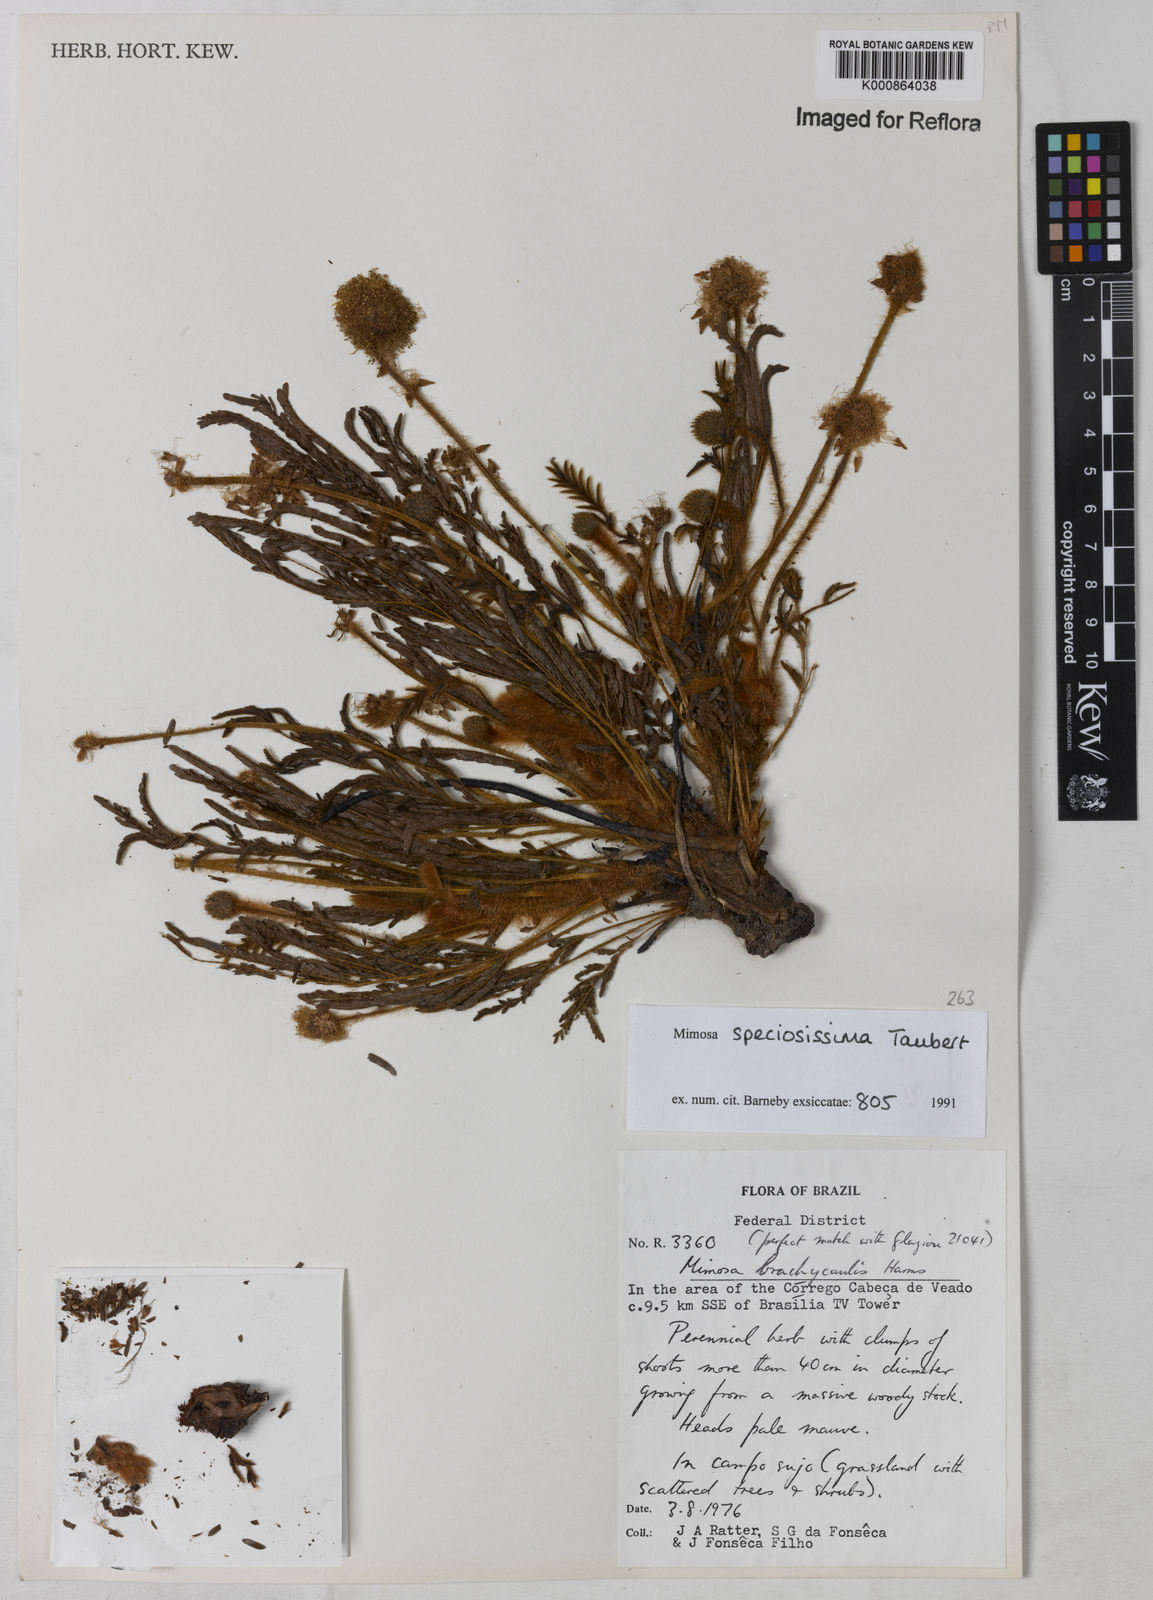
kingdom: Plantae
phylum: Tracheophyta
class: Magnoliopsida
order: Fabales
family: Fabaceae
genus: Mimosa
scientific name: Mimosa speciosissima
